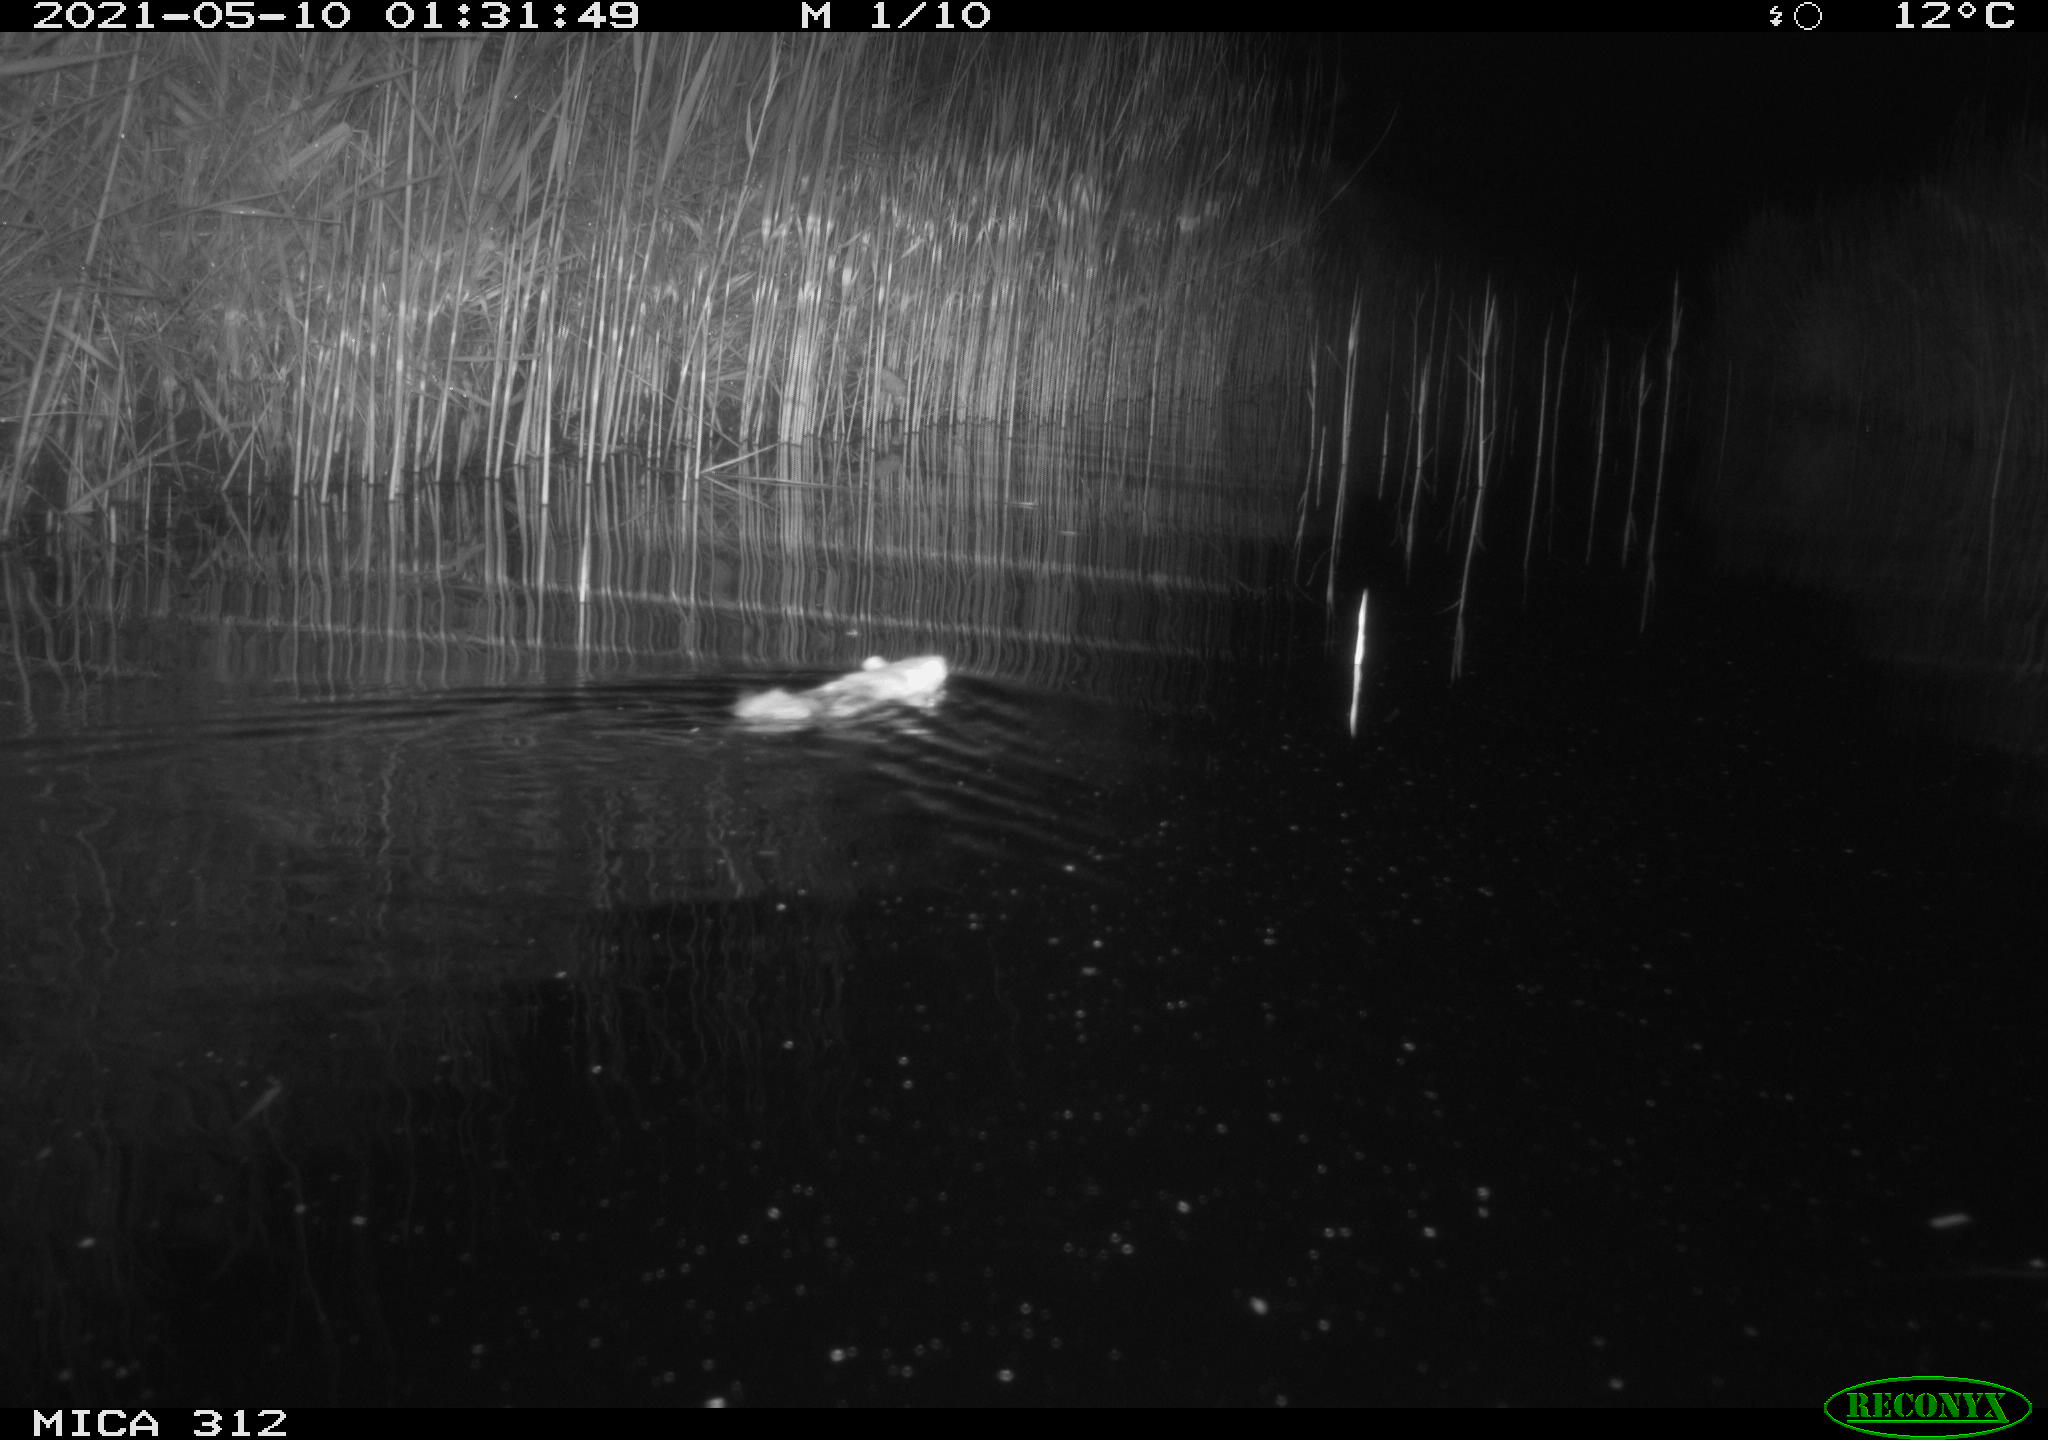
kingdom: Animalia
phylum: Chordata
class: Mammalia
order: Rodentia
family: Muridae
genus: Rattus
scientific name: Rattus norvegicus
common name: Brown rat
